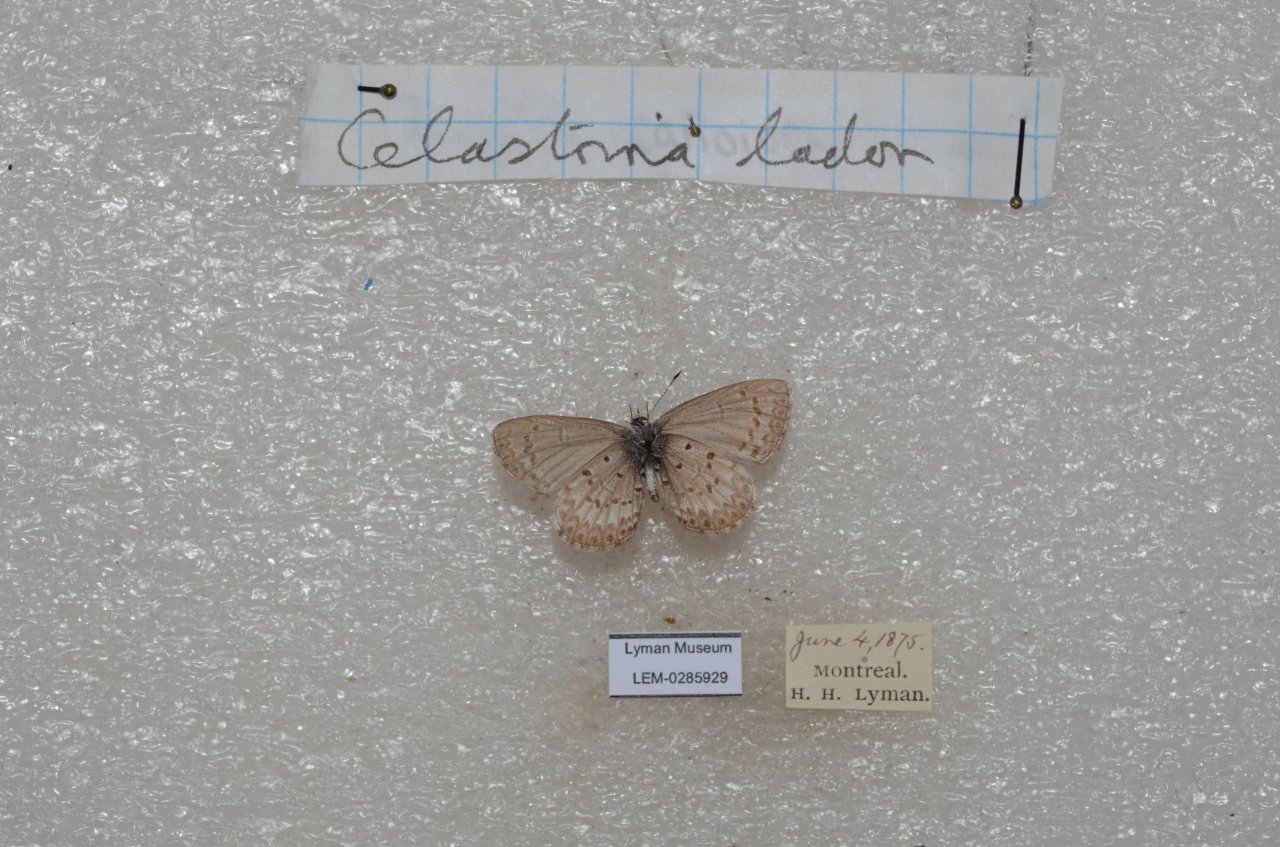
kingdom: Animalia
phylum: Arthropoda
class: Insecta
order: Lepidoptera
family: Lycaenidae
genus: Celastrina
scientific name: Celastrina lucia
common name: Northern Spring Azure
